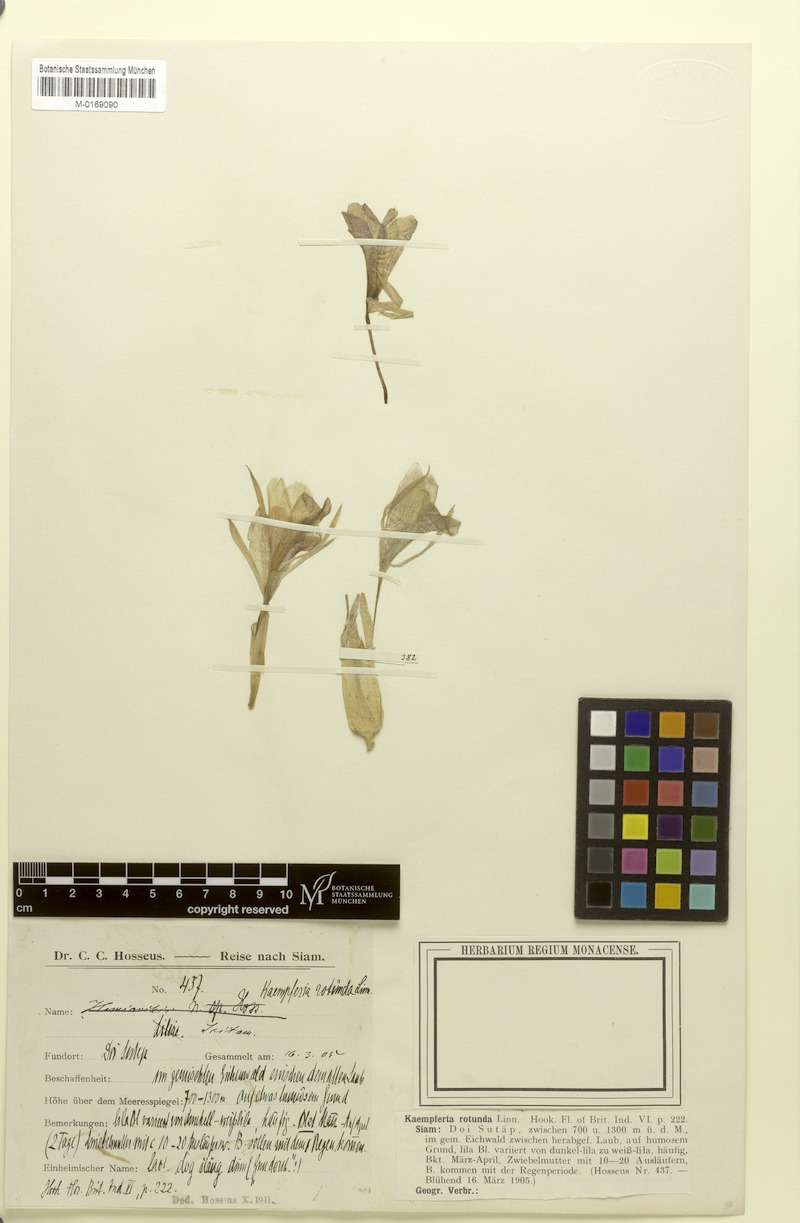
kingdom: Plantae
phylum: Tracheophyta
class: Liliopsida
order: Zingiberales
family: Zingiberaceae
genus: Kaempferia
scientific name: Kaempferia rotunda
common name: Tropical-crocus
